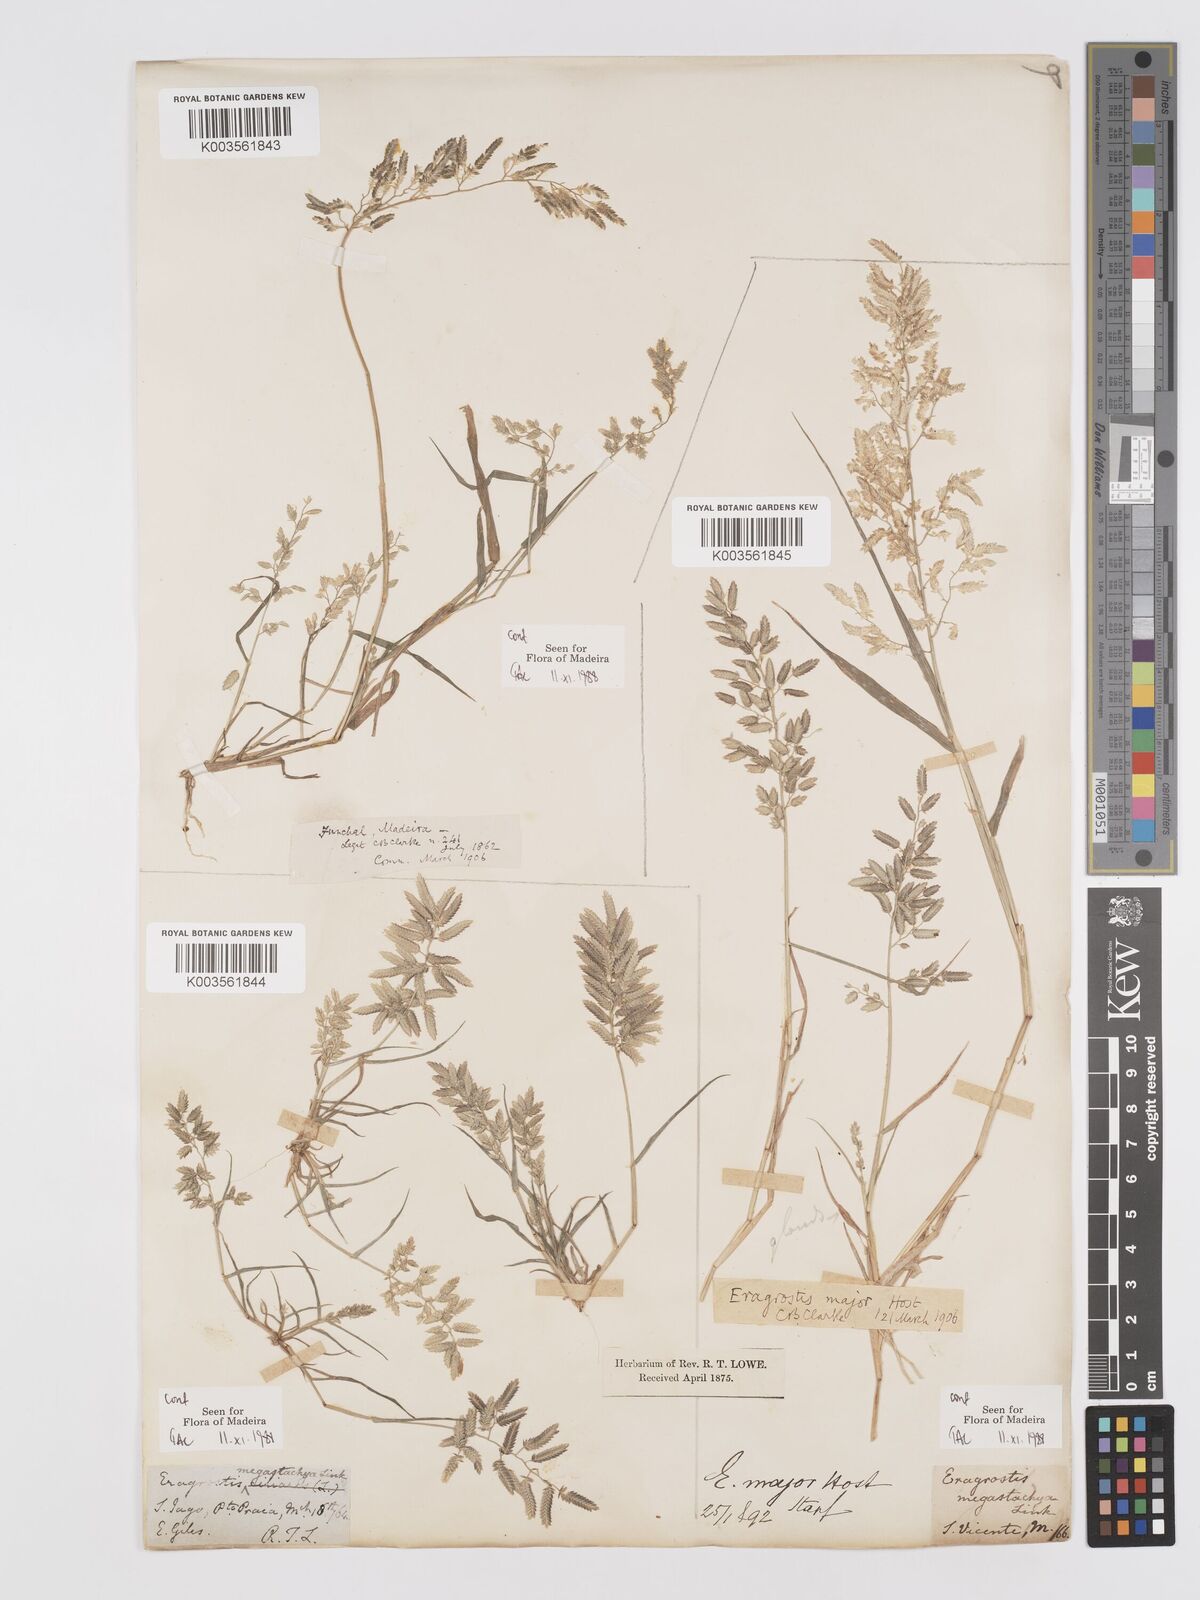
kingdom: Plantae
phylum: Tracheophyta
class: Liliopsida
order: Poales
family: Poaceae
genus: Eragrostis
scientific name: Eragrostis cilianensis
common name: Stinkgrass
